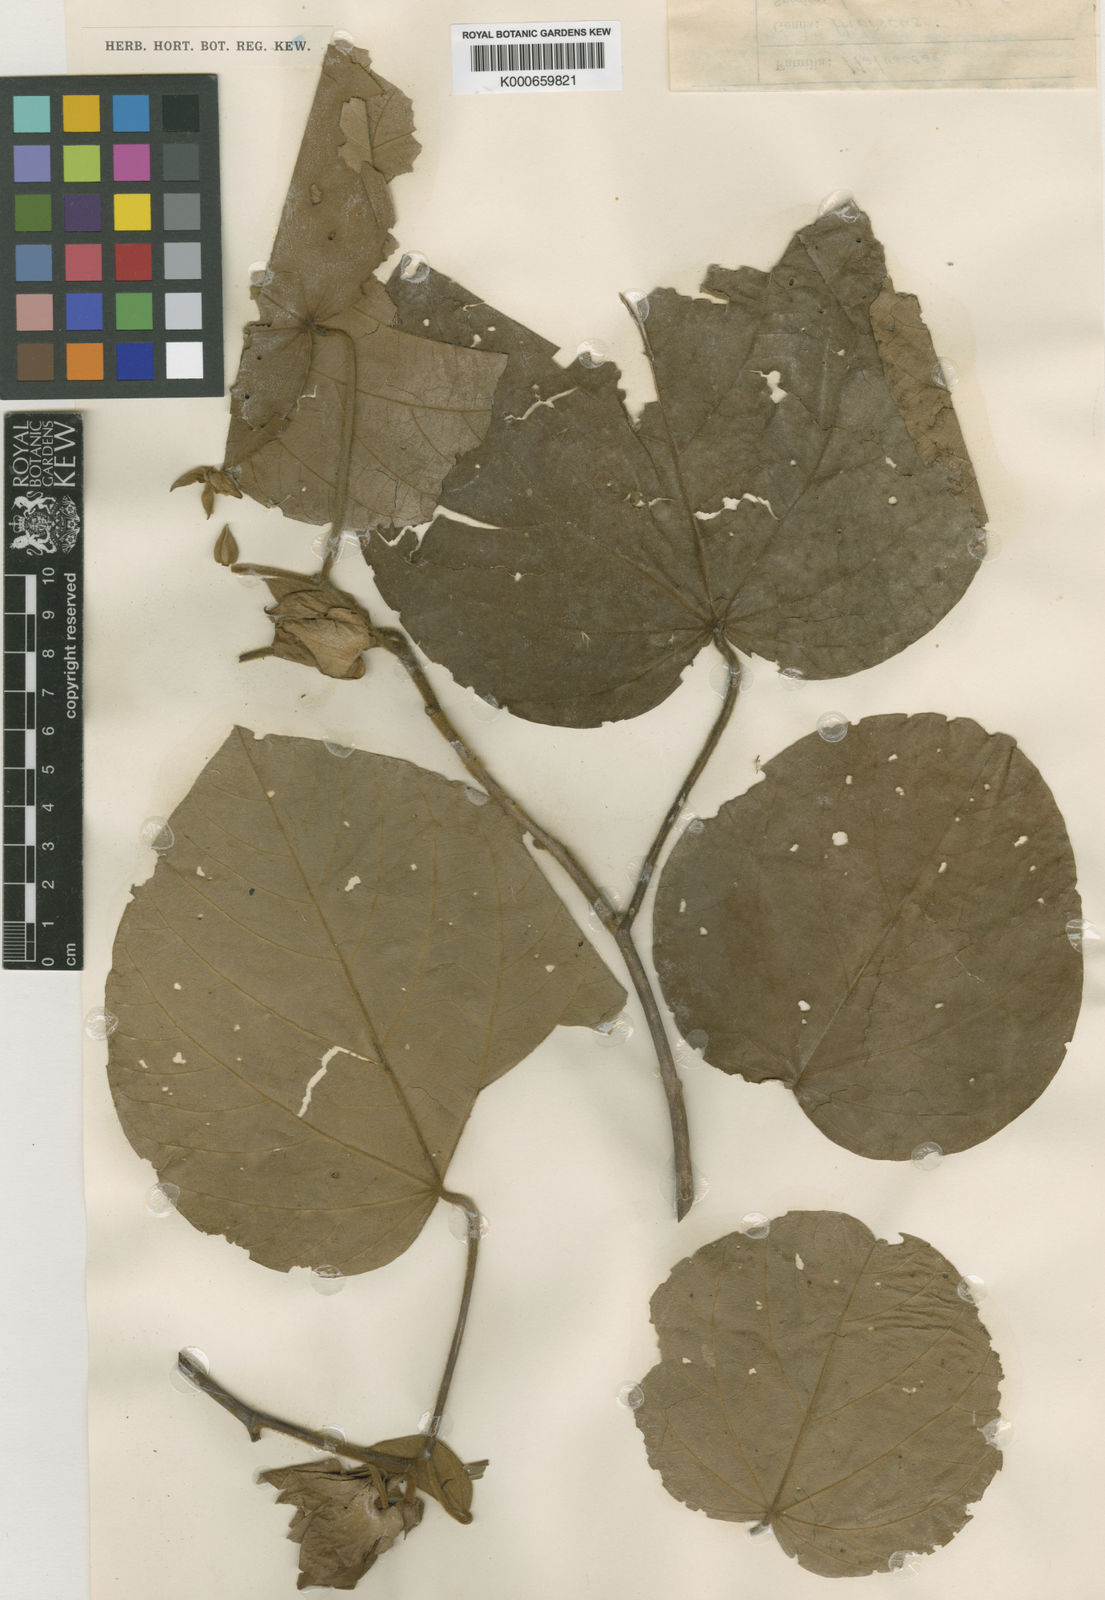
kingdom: Plantae
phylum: Tracheophyta
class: Magnoliopsida
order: Malvales
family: Malvaceae
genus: Talipariti
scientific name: Talipariti leeuwenii
